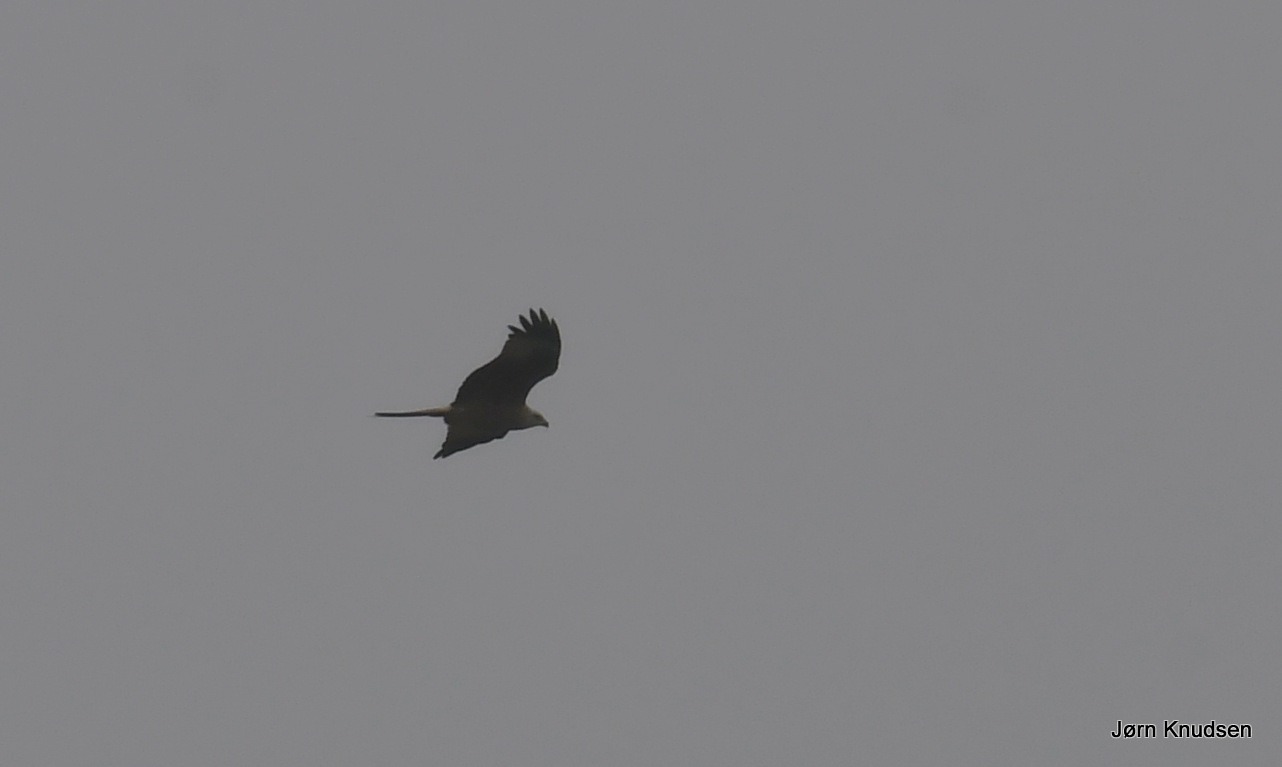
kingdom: Animalia
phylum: Chordata
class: Aves
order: Accipitriformes
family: Accipitridae
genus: Milvus
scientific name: Milvus milvus
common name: Rød glente
